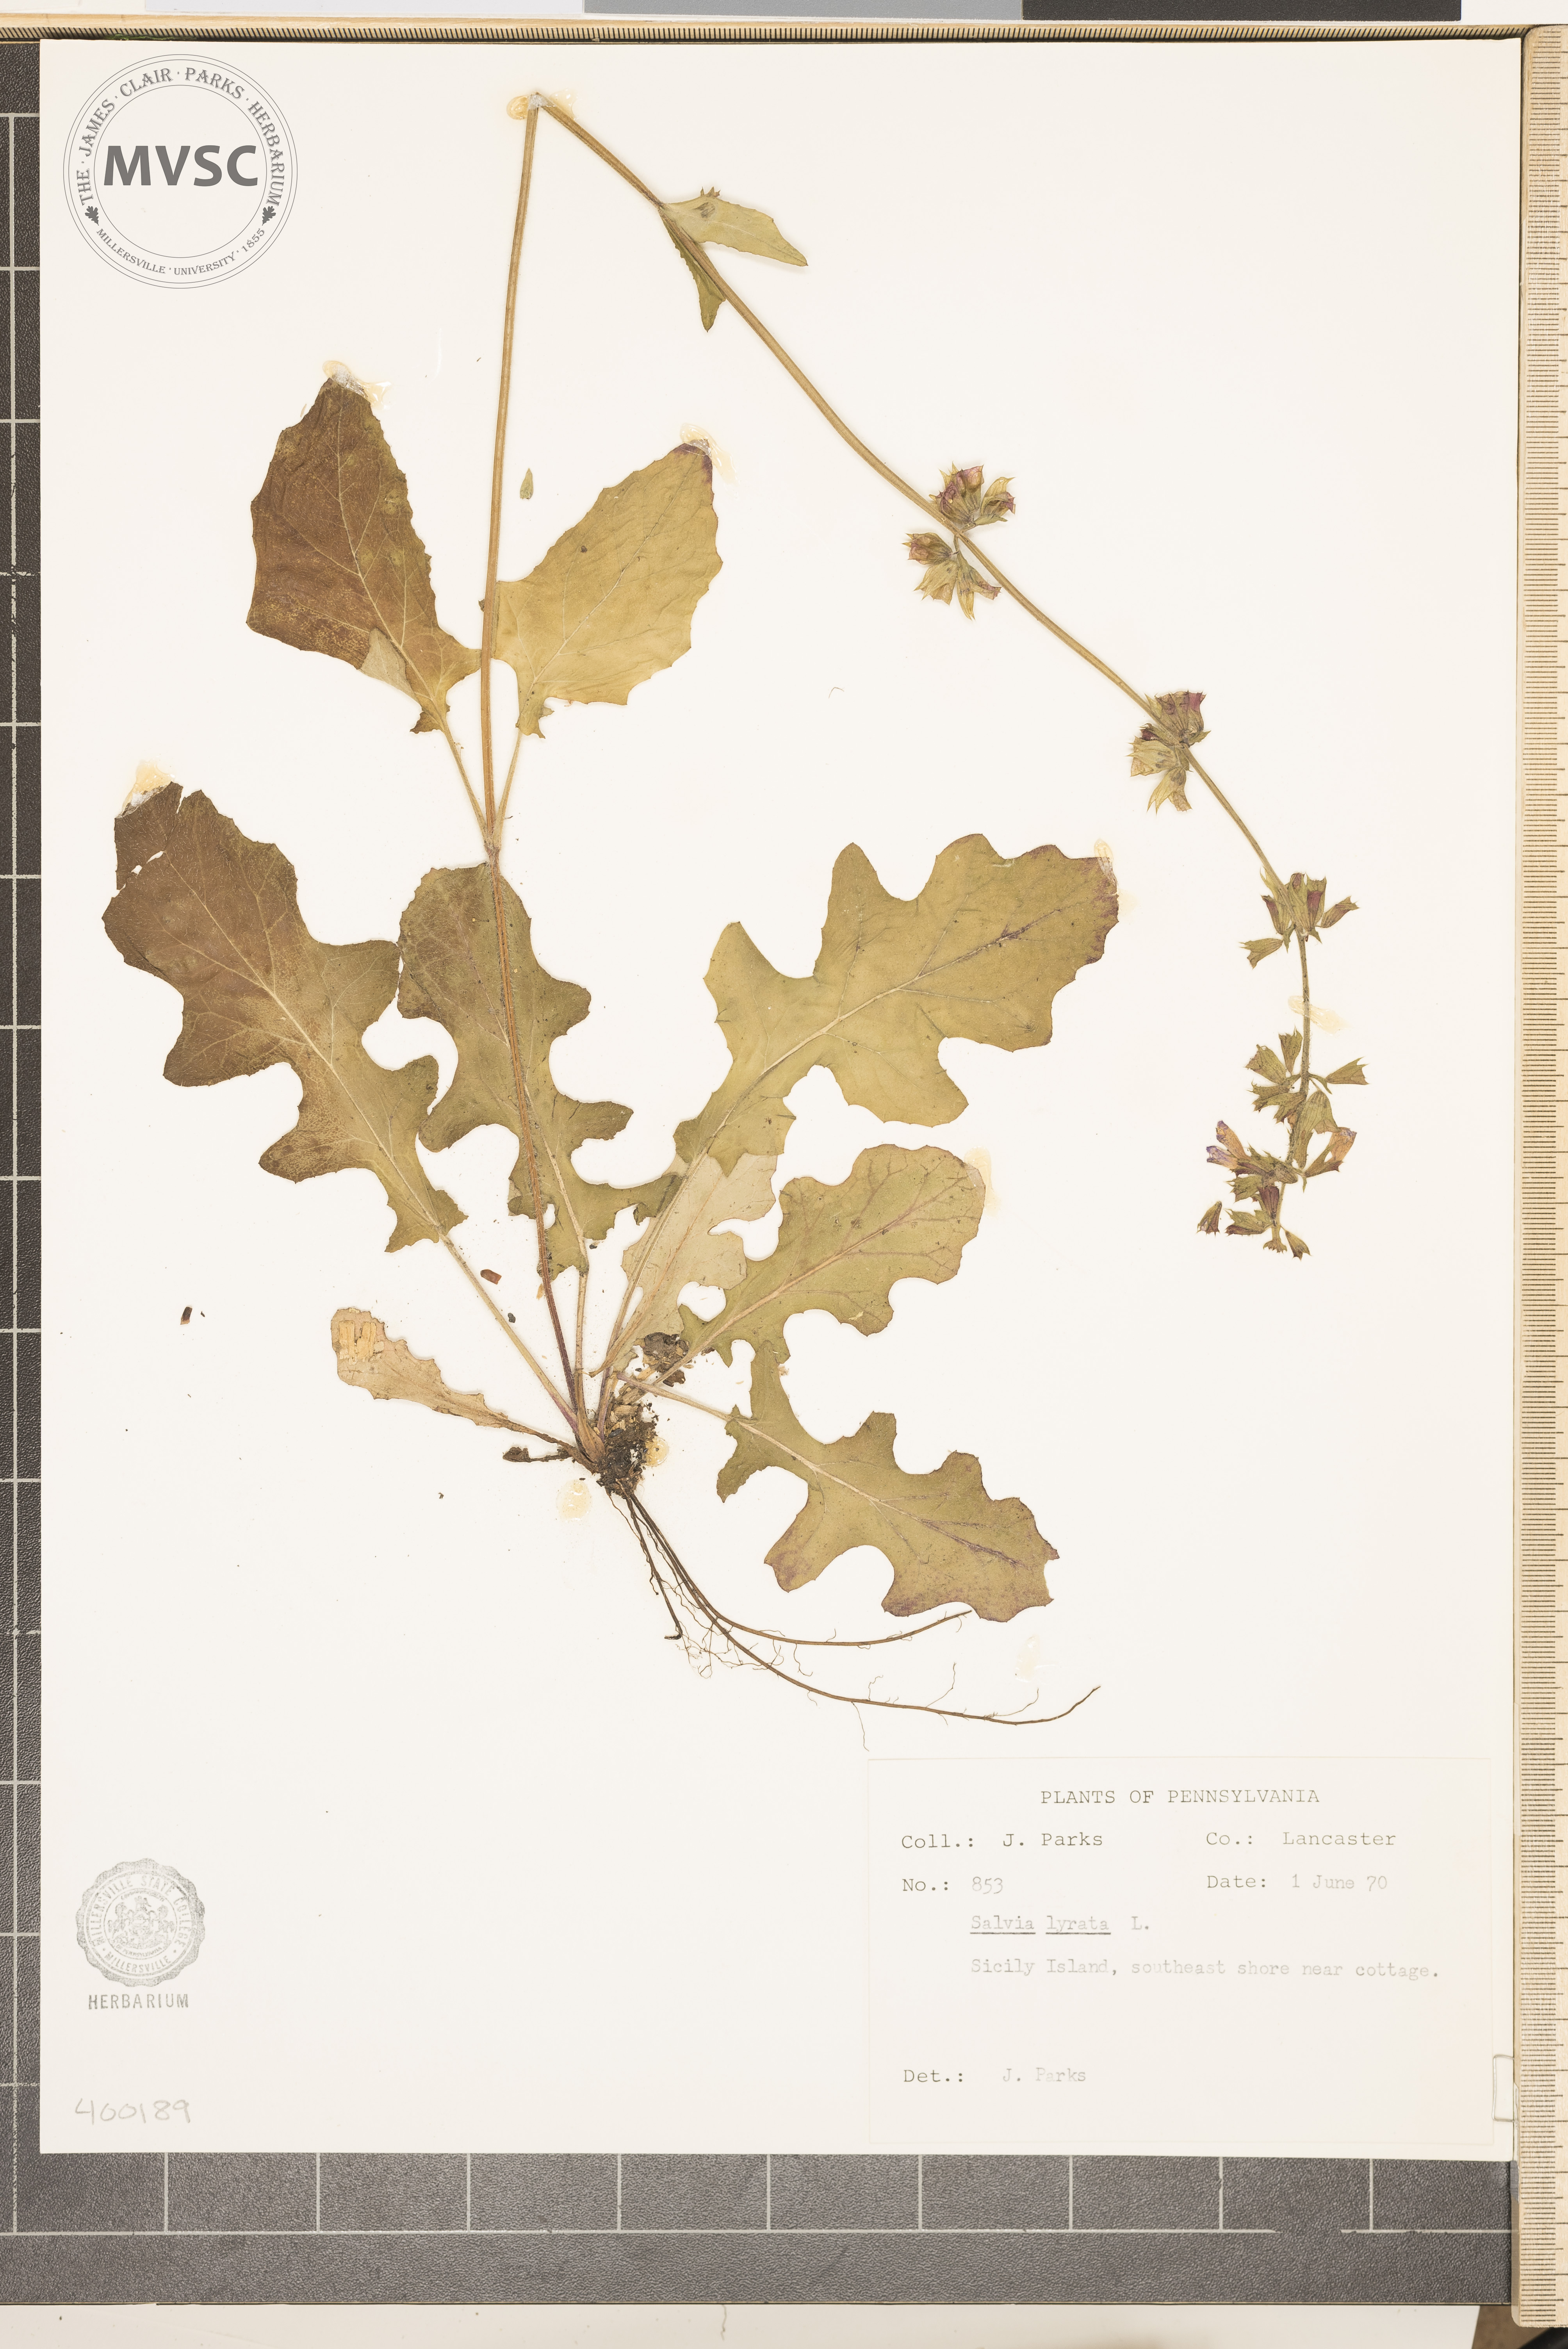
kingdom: Plantae
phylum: Tracheophyta
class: Magnoliopsida
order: Lamiales
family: Lamiaceae
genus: Salvia
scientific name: Salvia lyrata
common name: salvia
